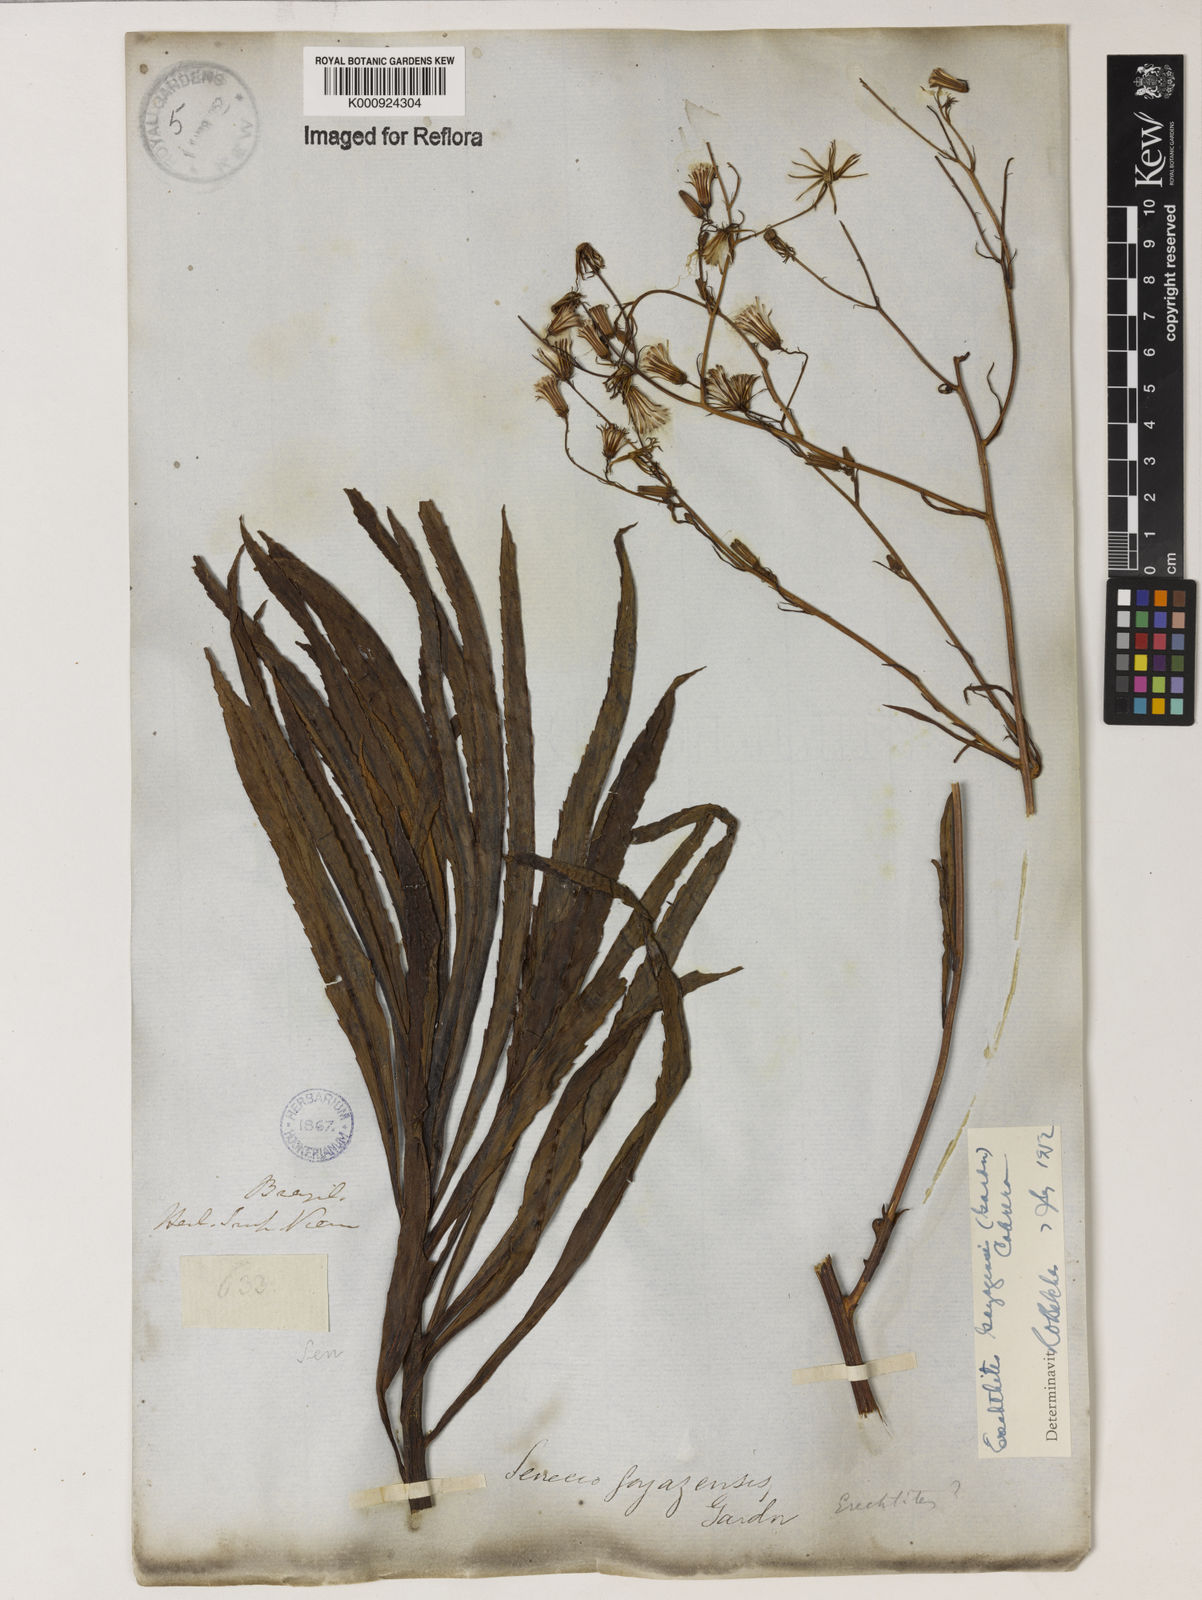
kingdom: Plantae
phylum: Tracheophyta
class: Magnoliopsida
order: Asterales
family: Asteraceae
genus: Erechtites
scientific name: Erechtites goyazensis
